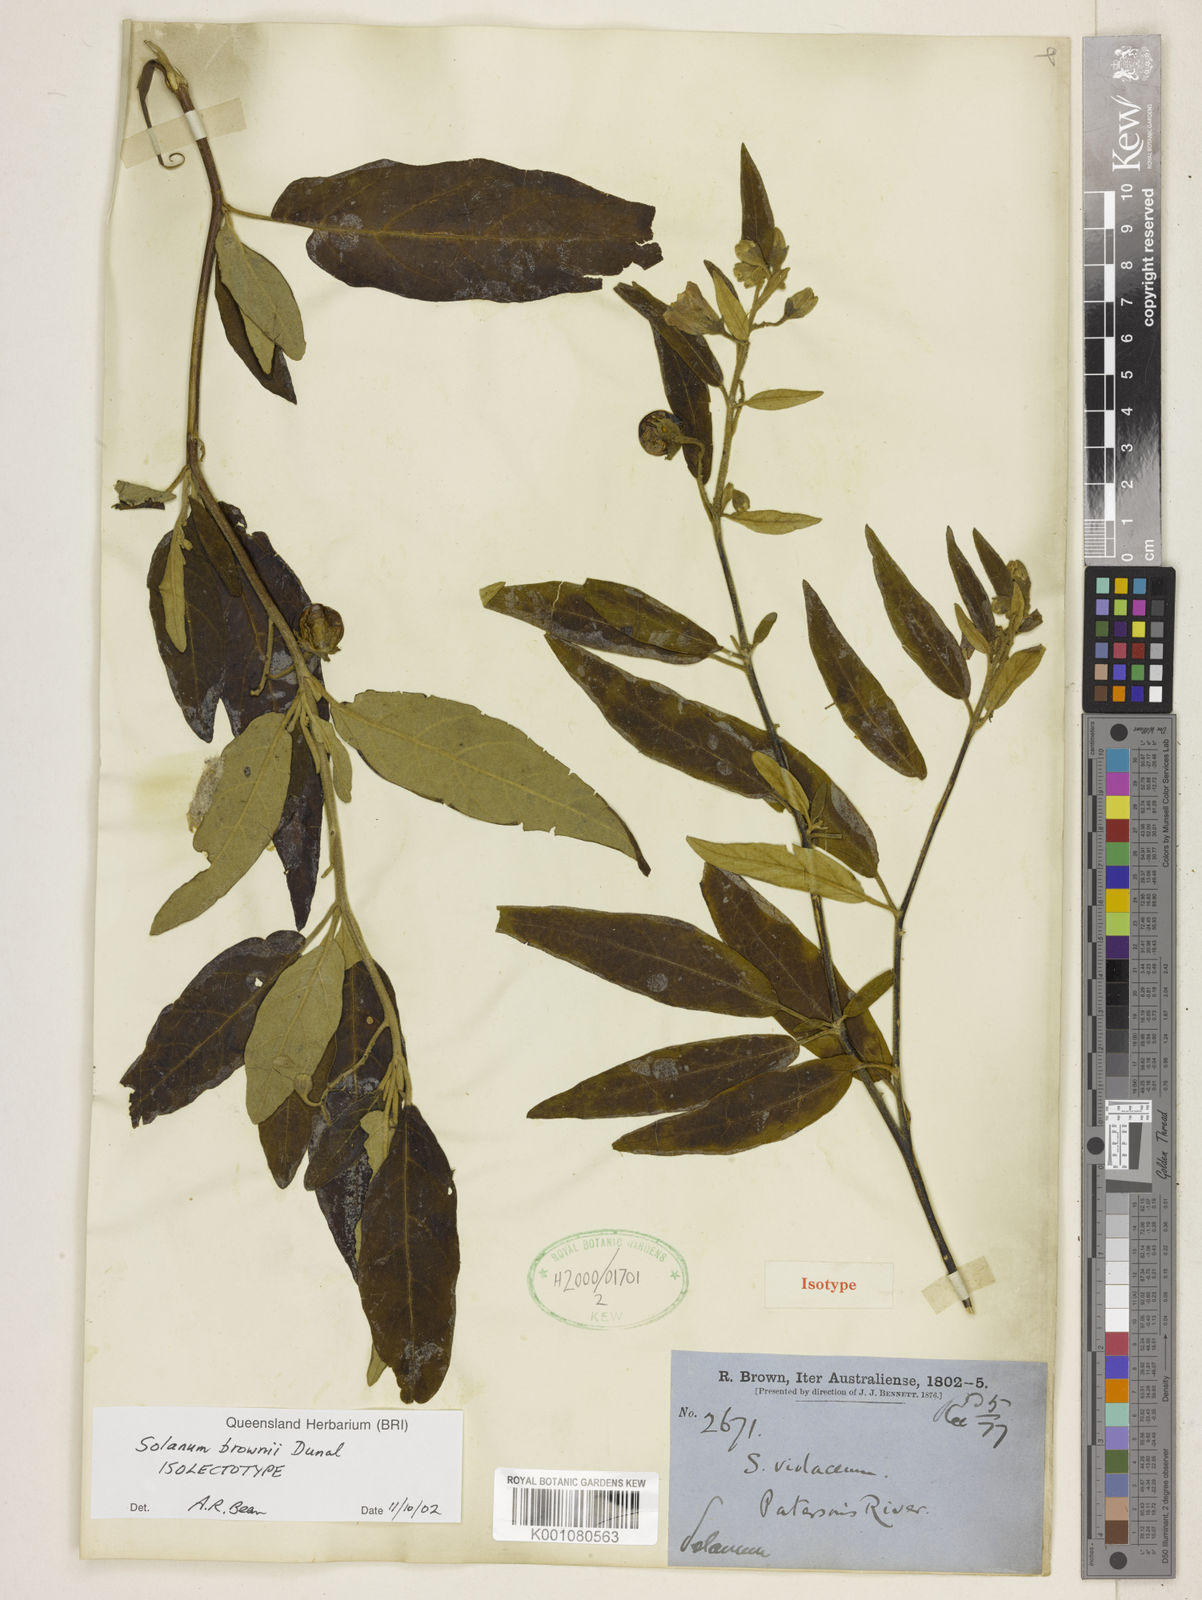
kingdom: Plantae
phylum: Tracheophyta
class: Magnoliopsida
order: Solanales
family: Solanaceae
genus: Solanum
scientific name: Solanum hasslerianum
